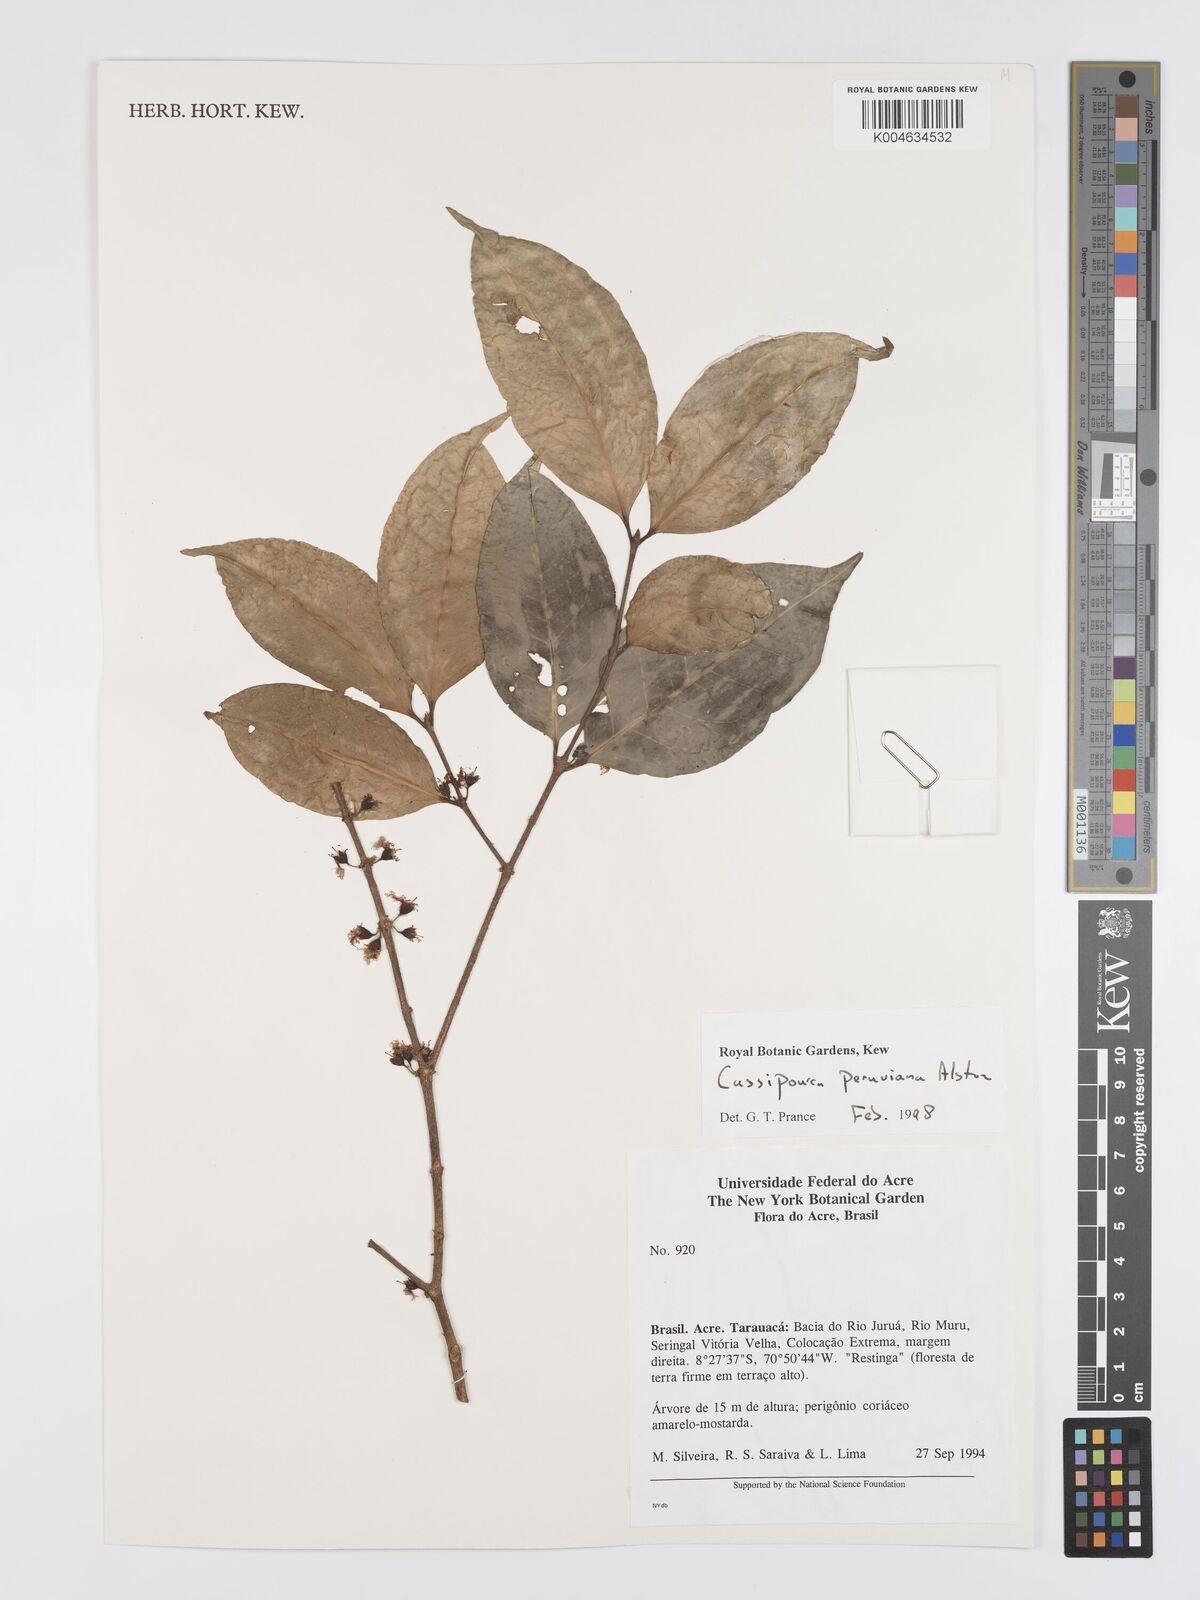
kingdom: Plantae
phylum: Tracheophyta
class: Magnoliopsida
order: Malpighiales
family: Rhizophoraceae
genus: Cassipourea
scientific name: Cassipourea peruviana
